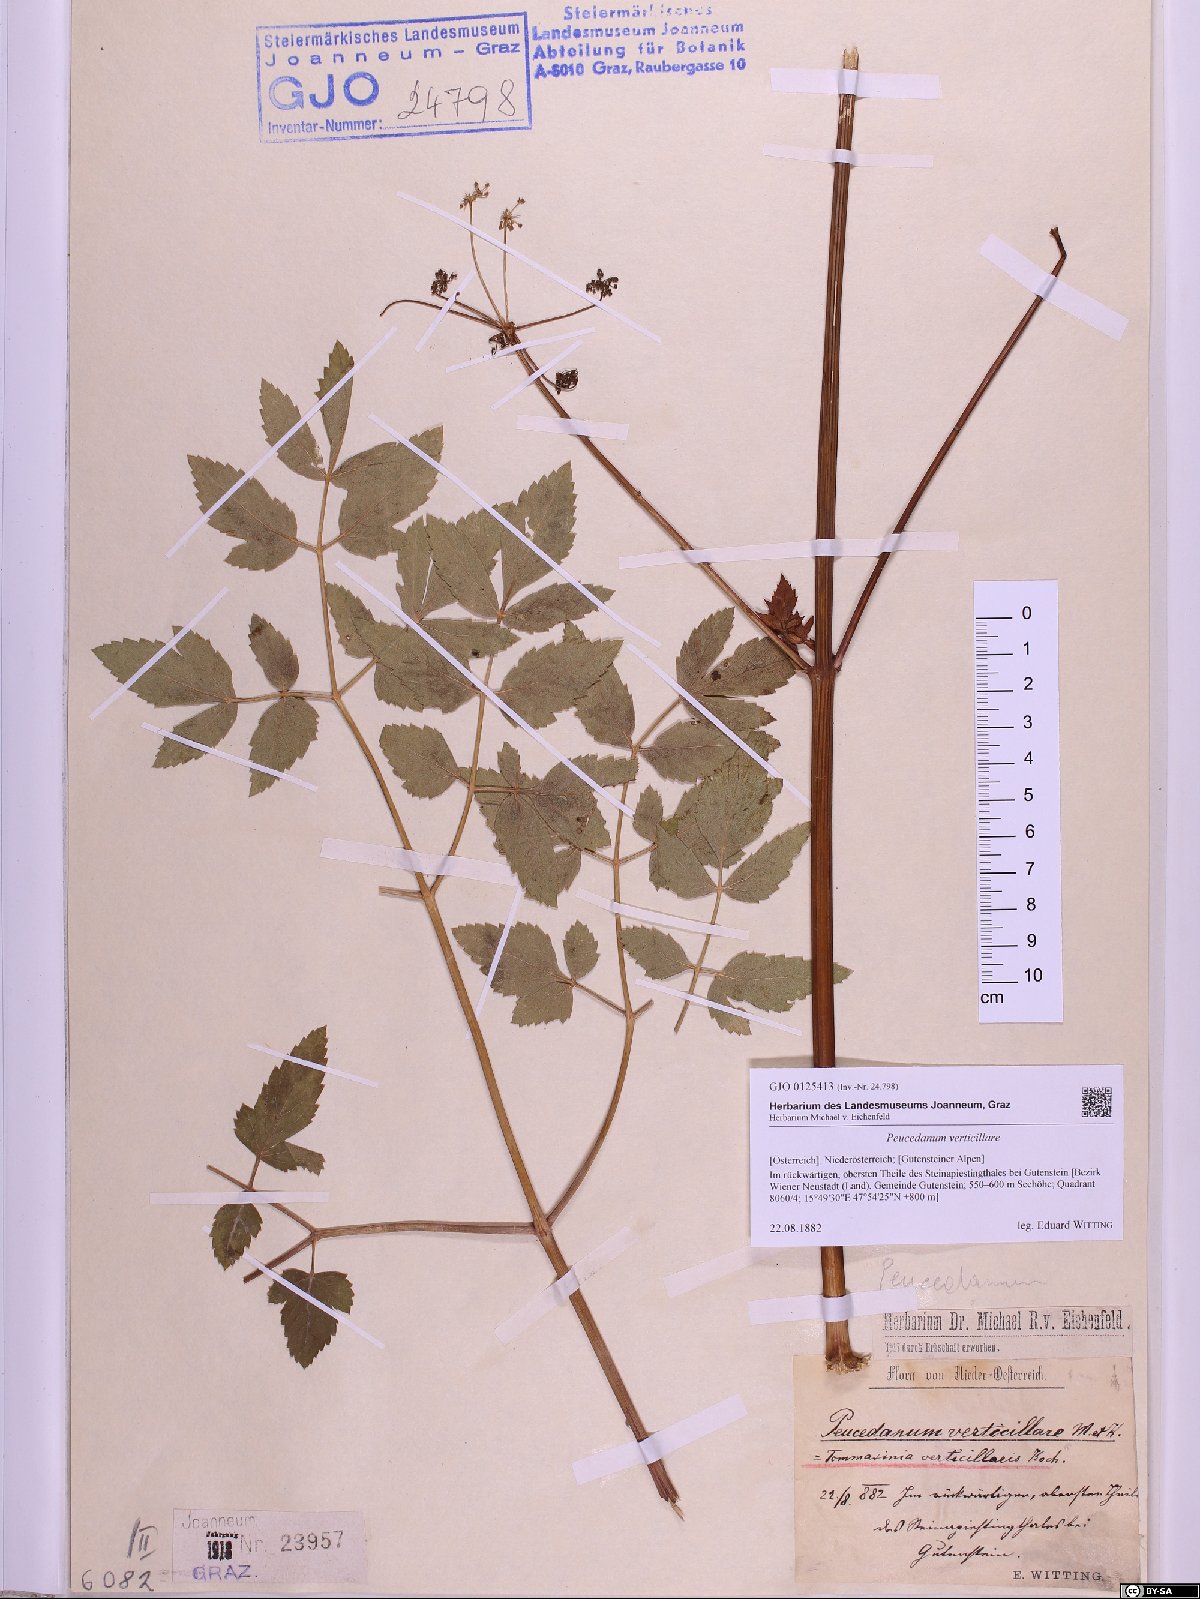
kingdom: Plantae
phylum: Tracheophyta
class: Magnoliopsida
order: Apiales
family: Apiaceae
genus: Tommasinia
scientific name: Tommasinia altissima
